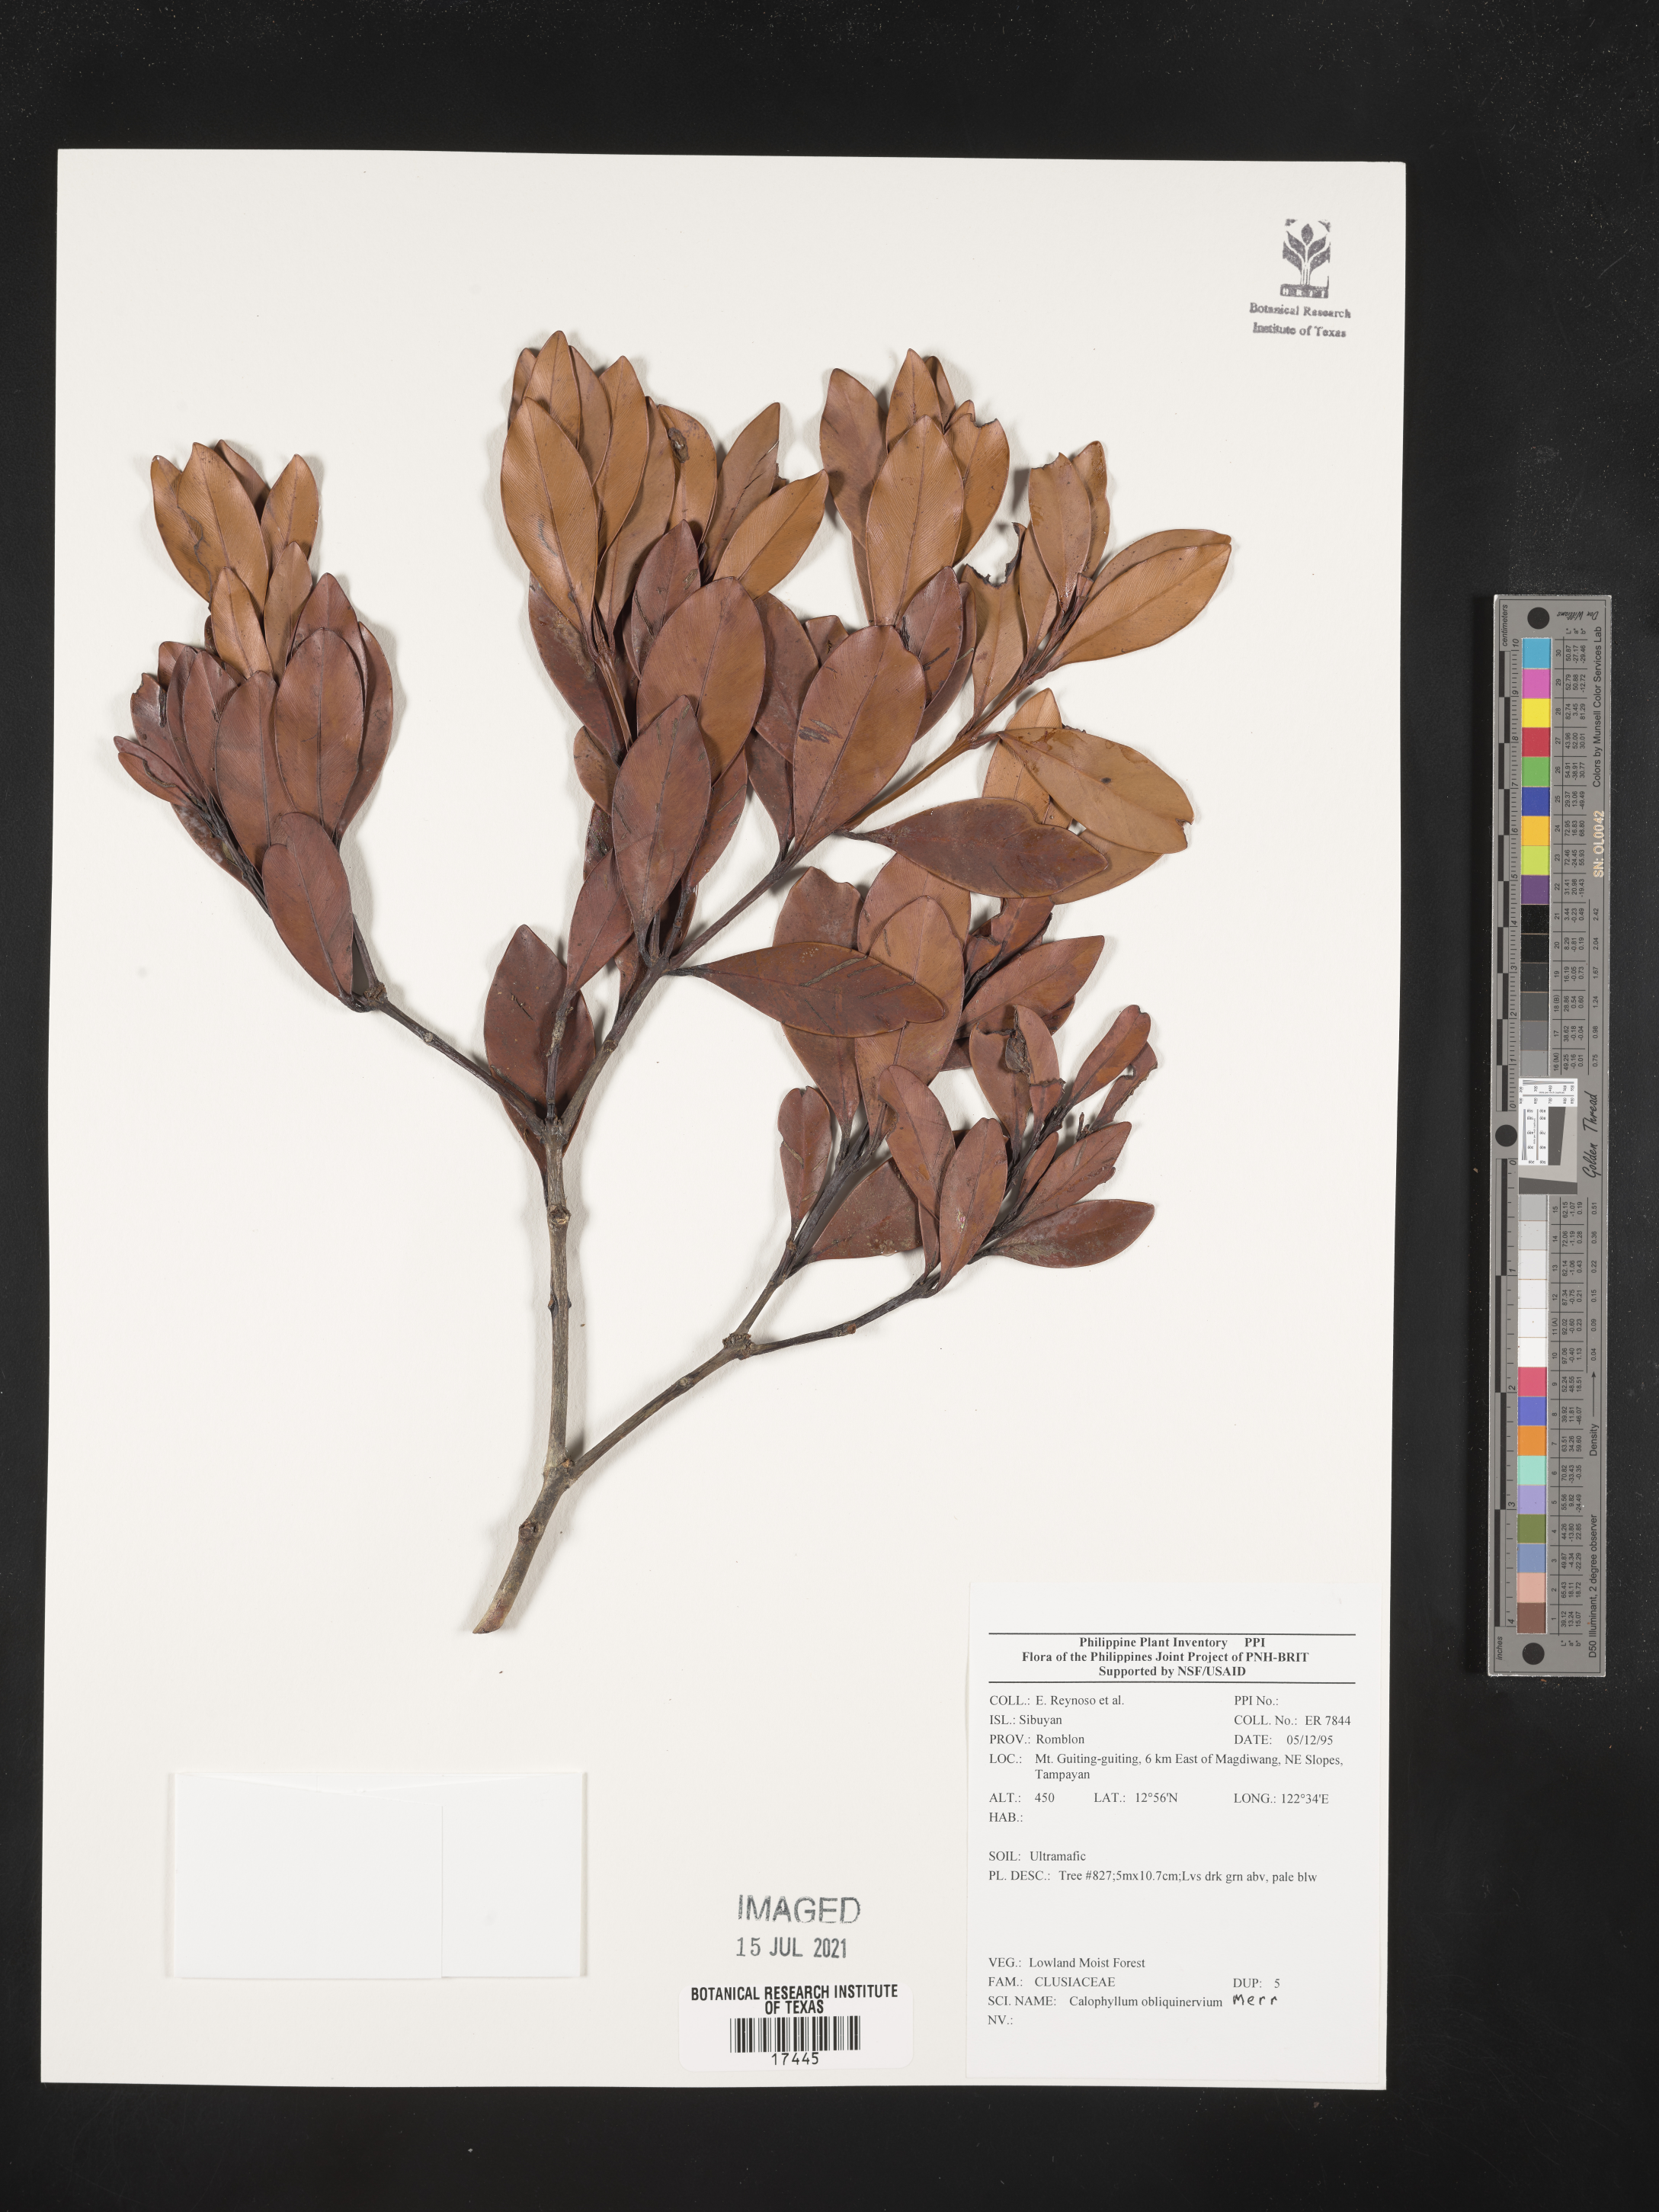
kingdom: Plantae
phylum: Tracheophyta
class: Magnoliopsida
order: Malpighiales
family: Calophyllaceae
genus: Calophyllum
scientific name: Calophyllum obliquinervium
